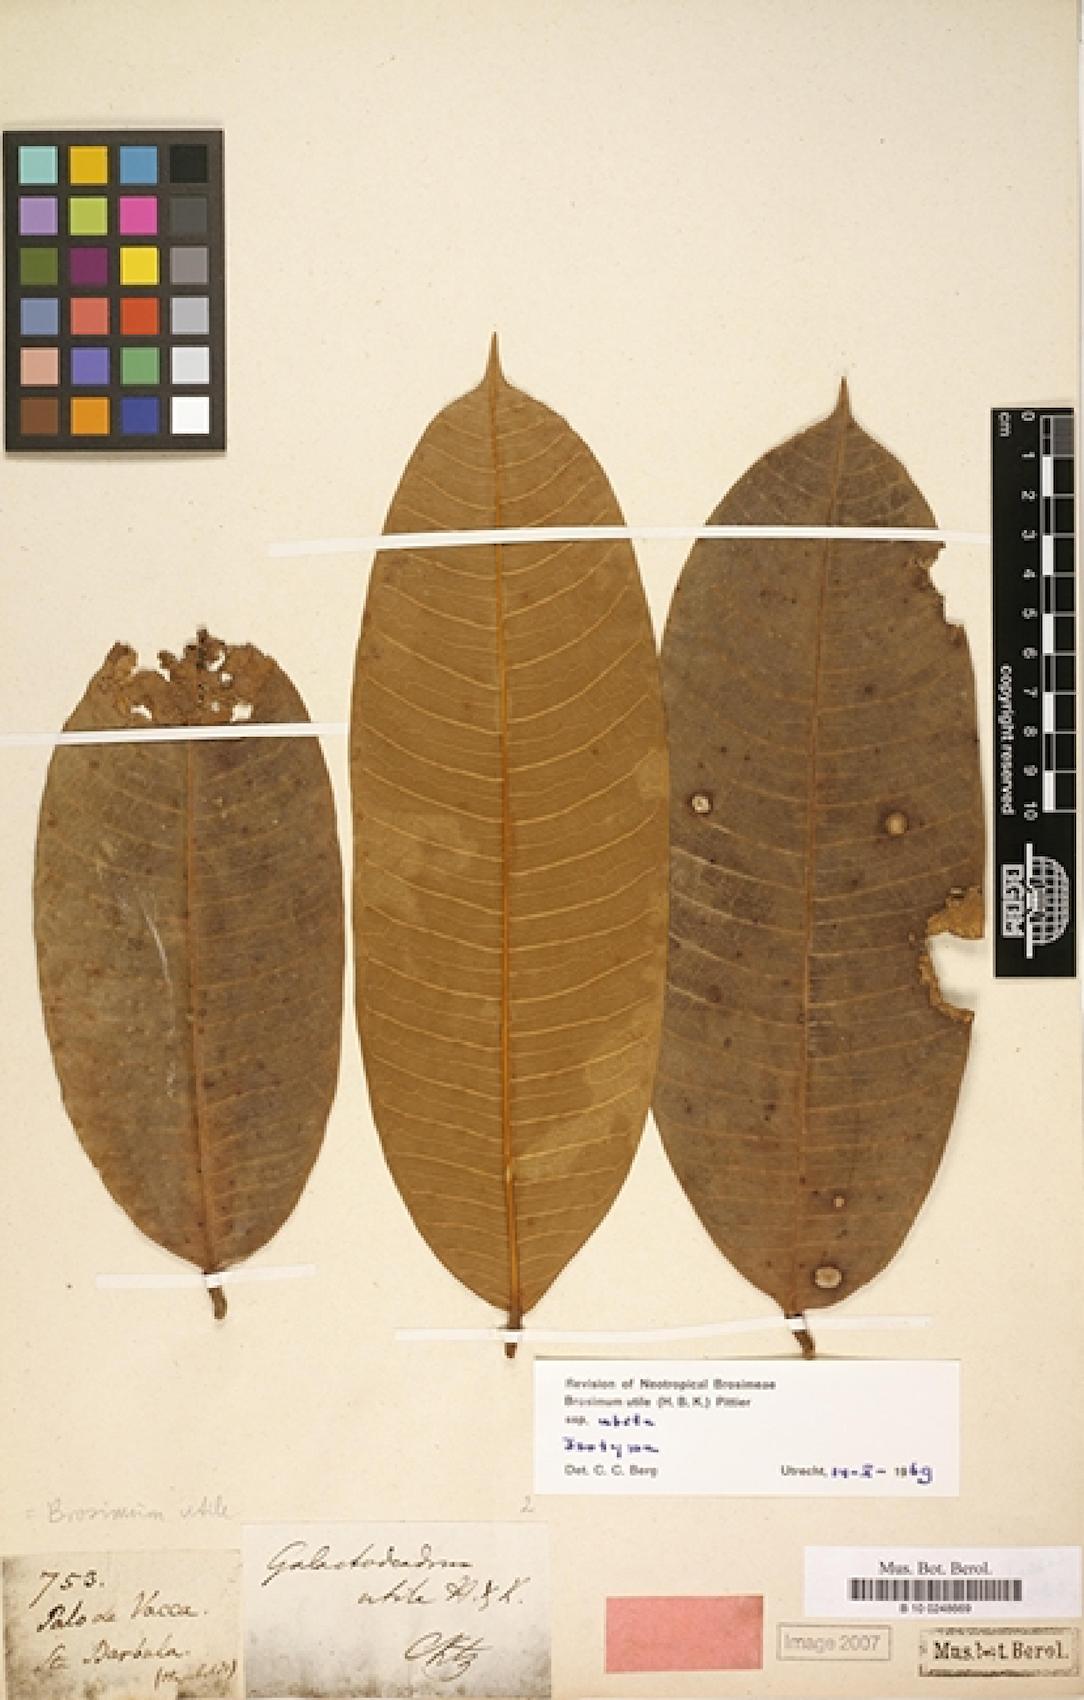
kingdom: Plantae
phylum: Tracheophyta
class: Magnoliopsida
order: Rosales
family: Moraceae
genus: Brosimum
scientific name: Brosimum utile
